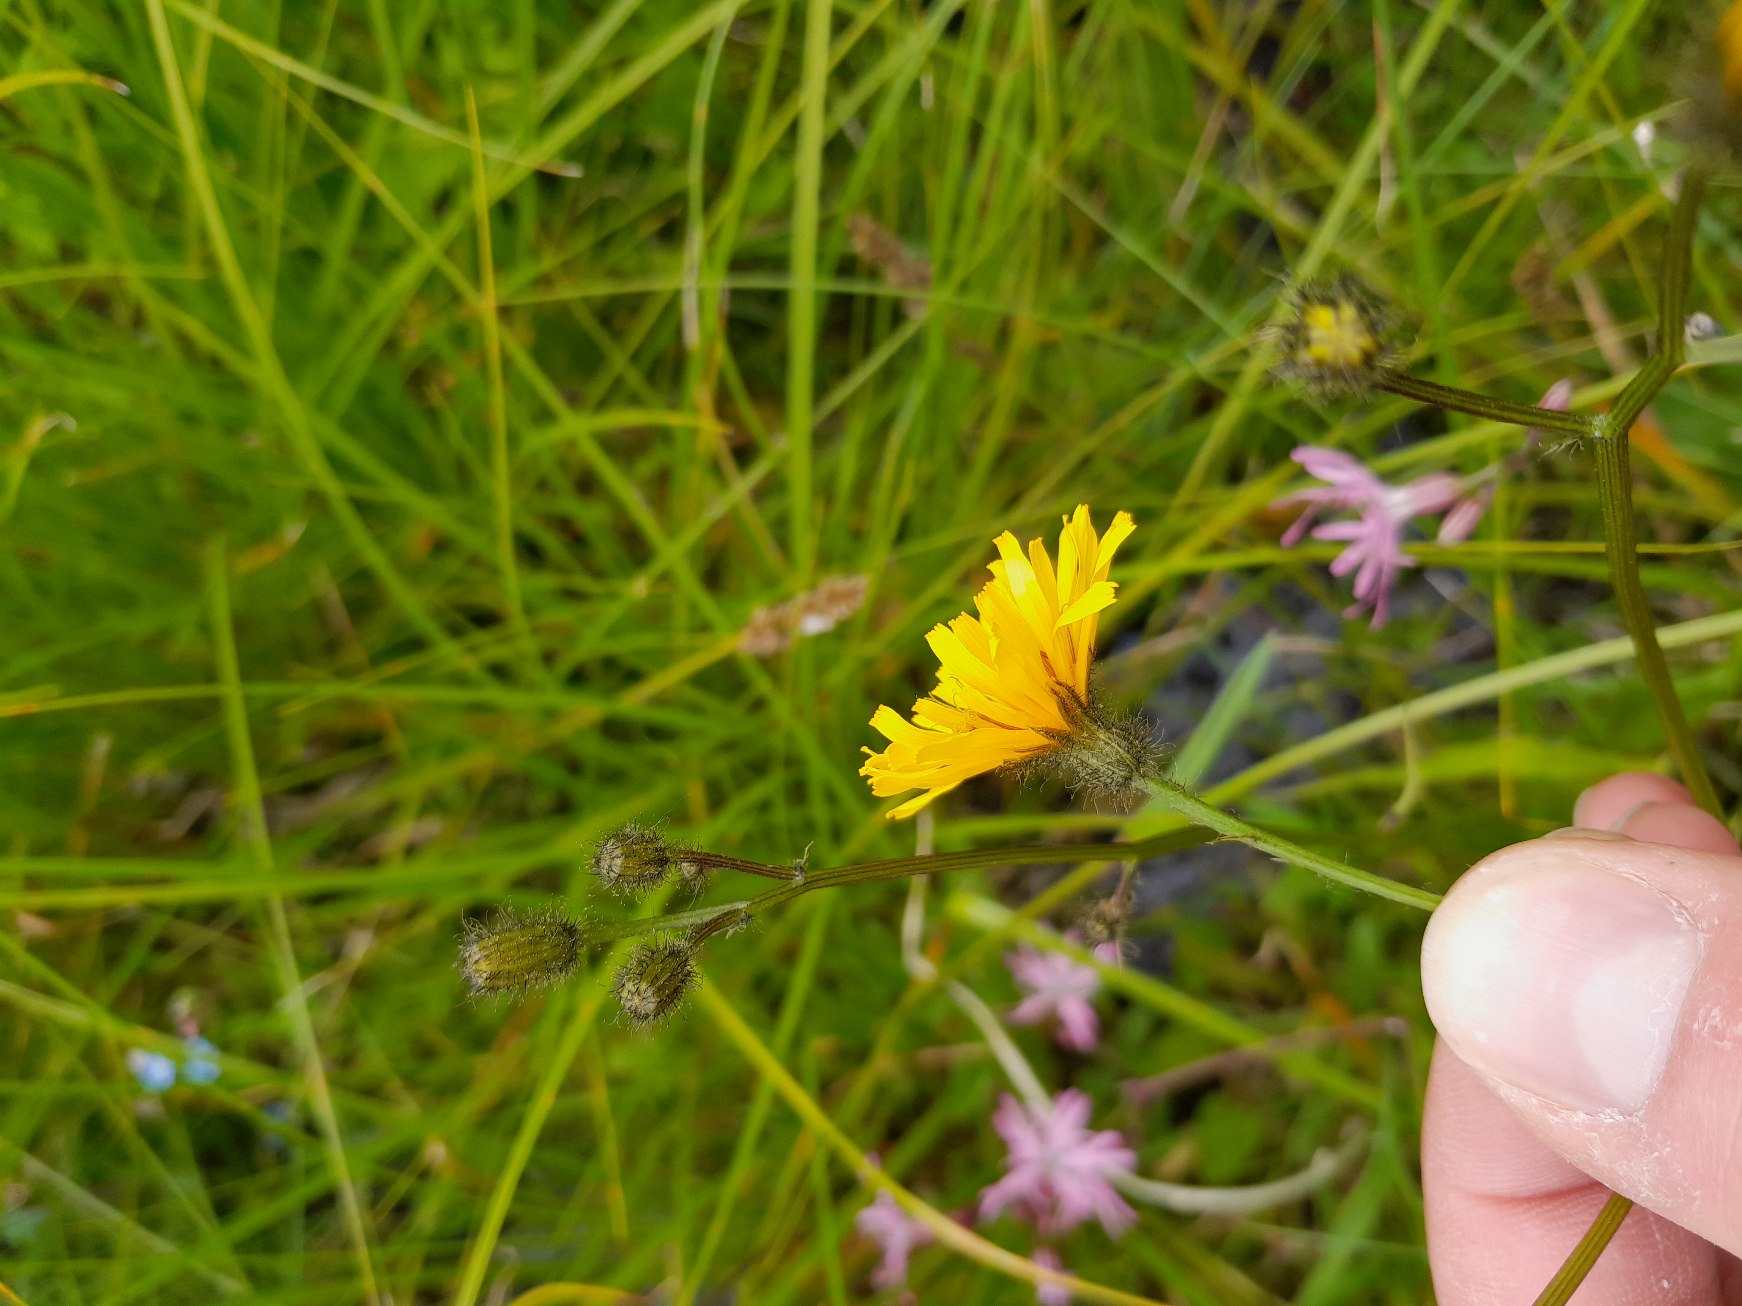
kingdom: Plantae
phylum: Tracheophyta
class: Magnoliopsida
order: Asterales
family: Asteraceae
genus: Crepis
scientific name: Crepis paludosa
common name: Kær-høgeskæg
